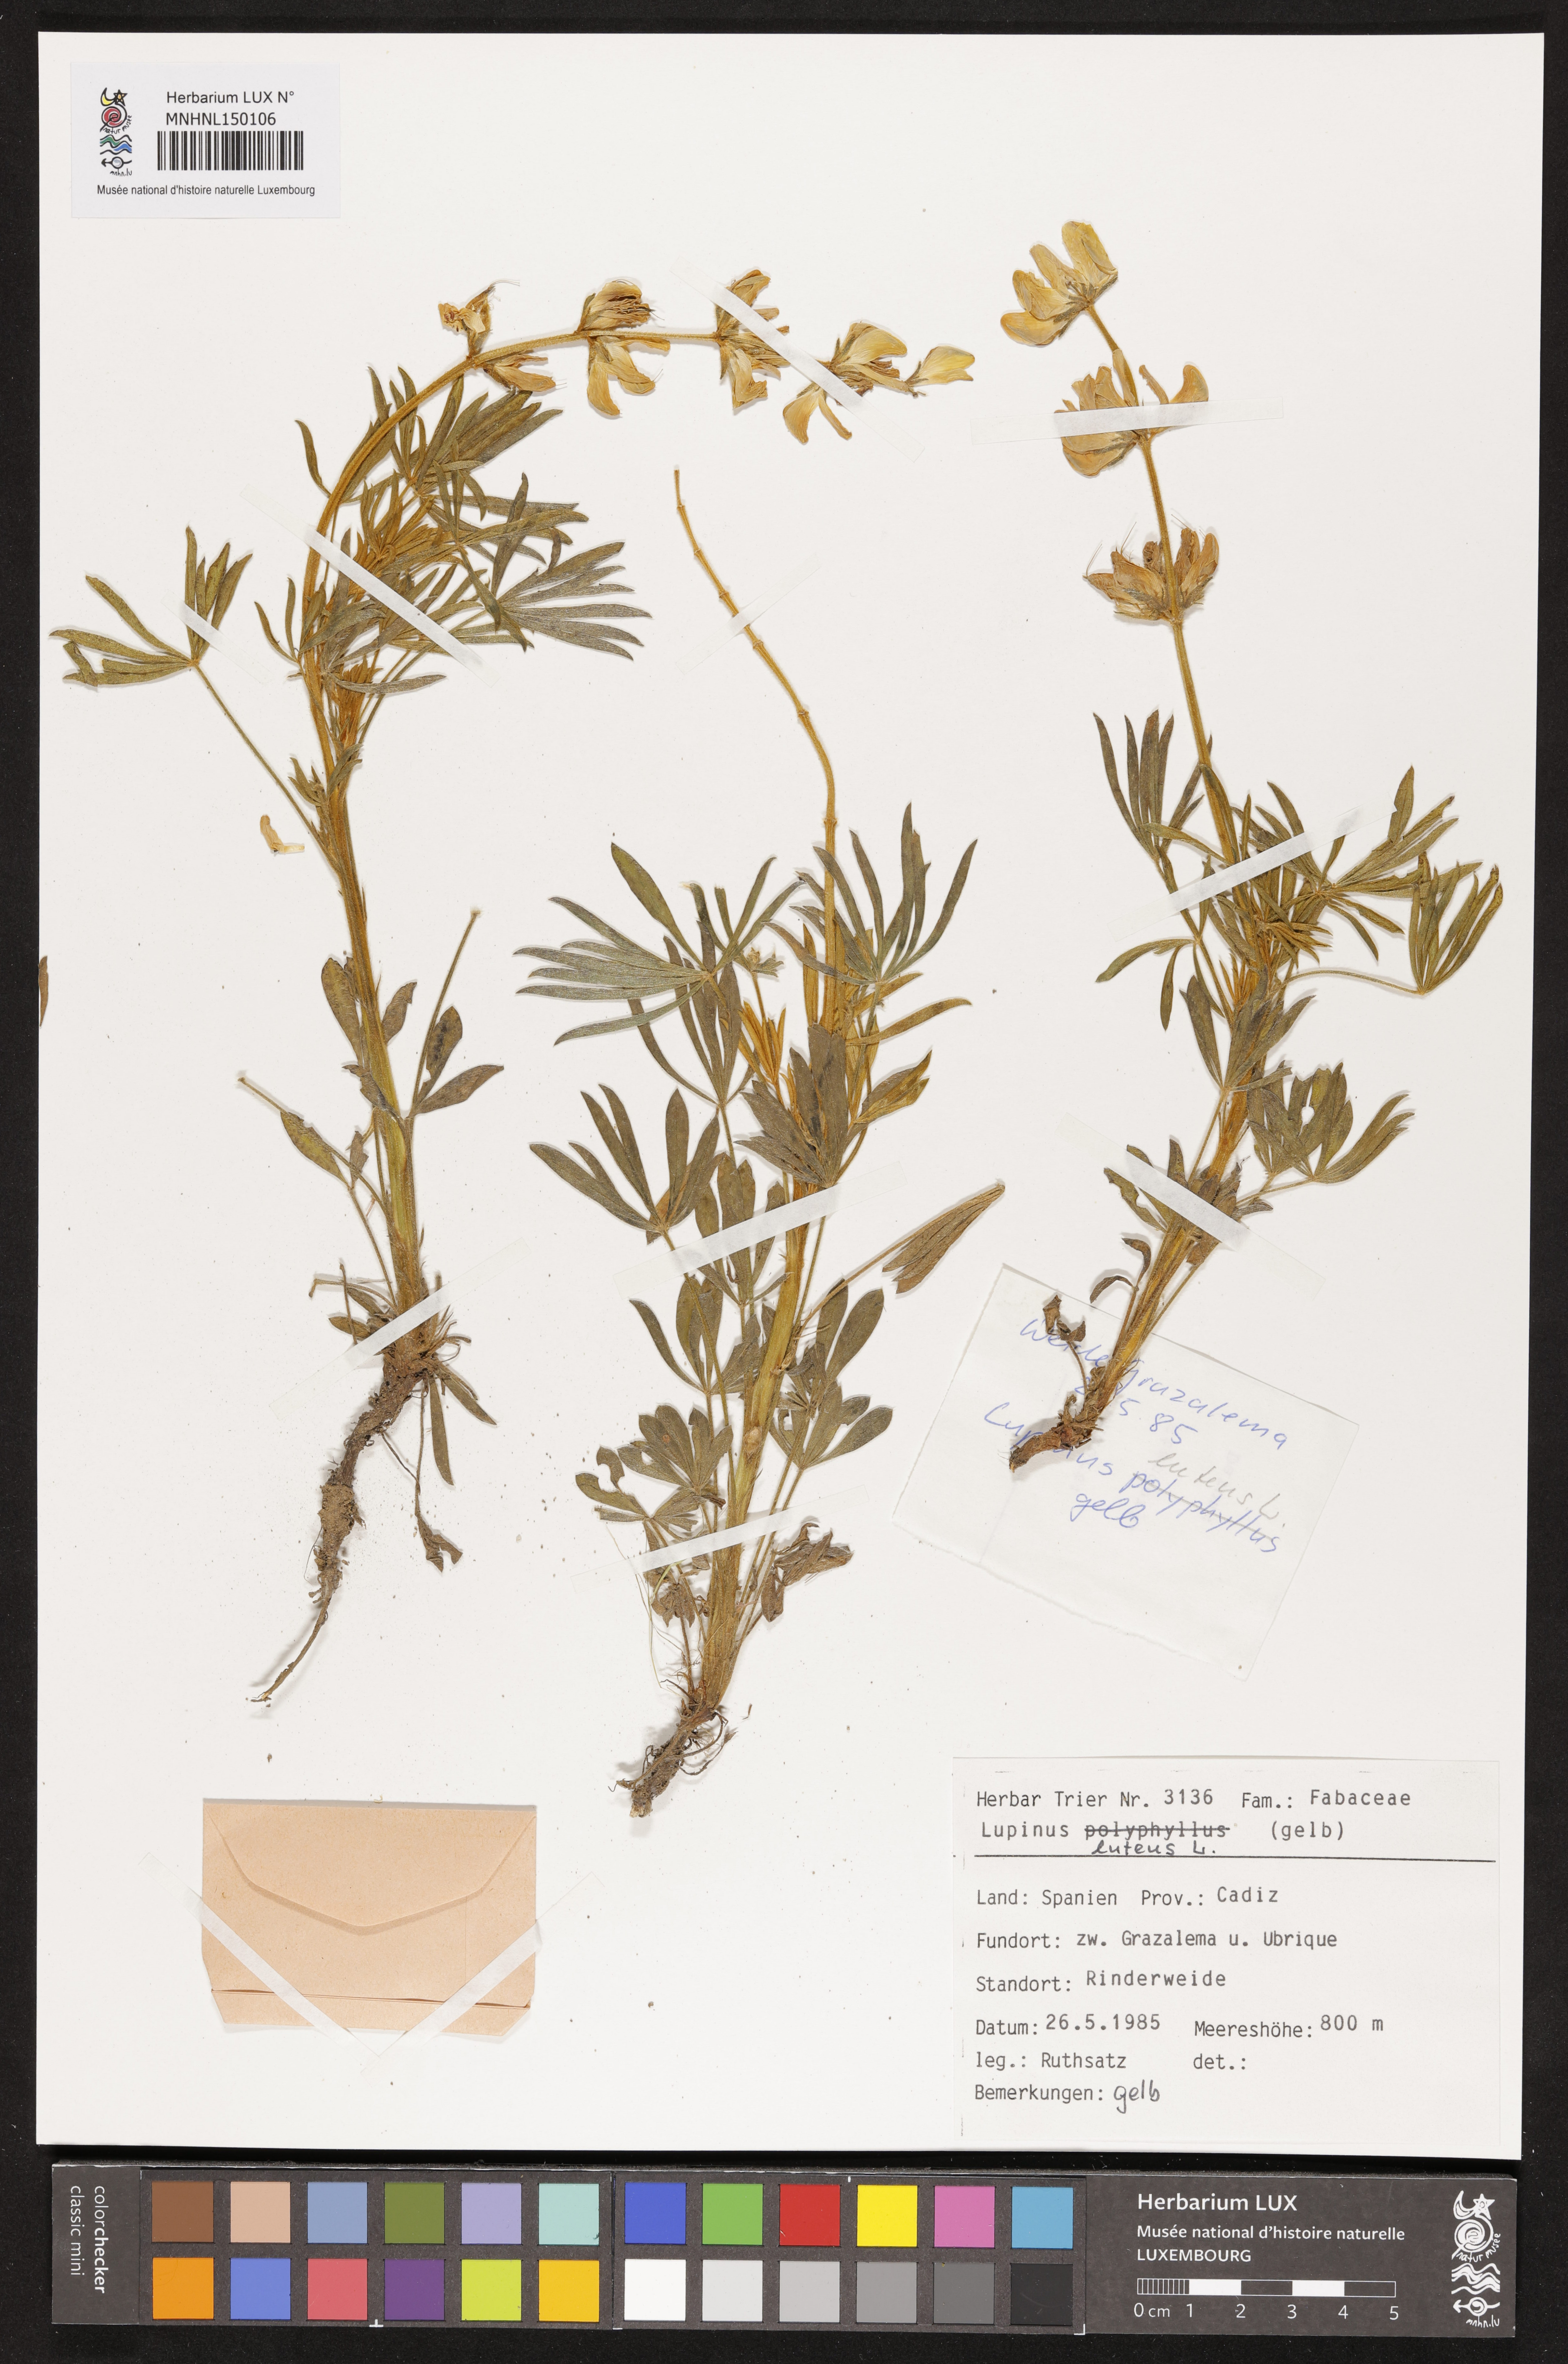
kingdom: Plantae
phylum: Tracheophyta
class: Magnoliopsida
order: Fabales
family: Fabaceae
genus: Lupinus
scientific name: Lupinus luteus
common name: European yellow lupine
